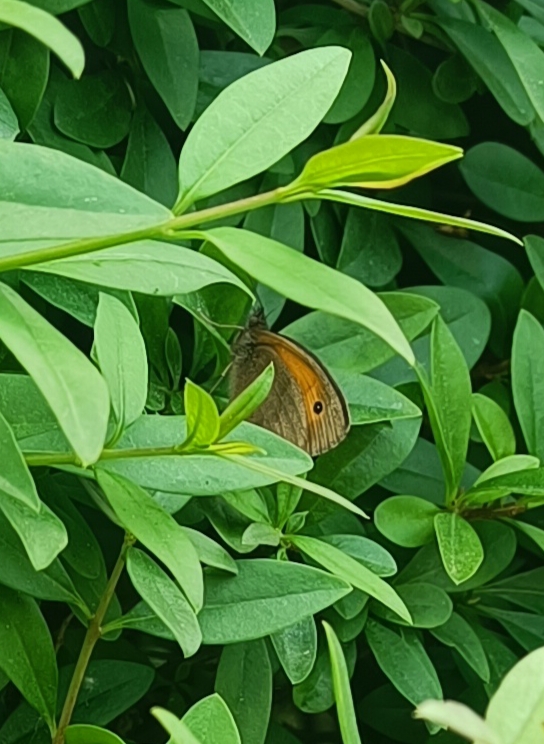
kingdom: Animalia
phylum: Arthropoda
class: Insecta
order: Lepidoptera
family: Nymphalidae
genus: Maniola
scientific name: Maniola jurtina
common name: Græsrandøje
